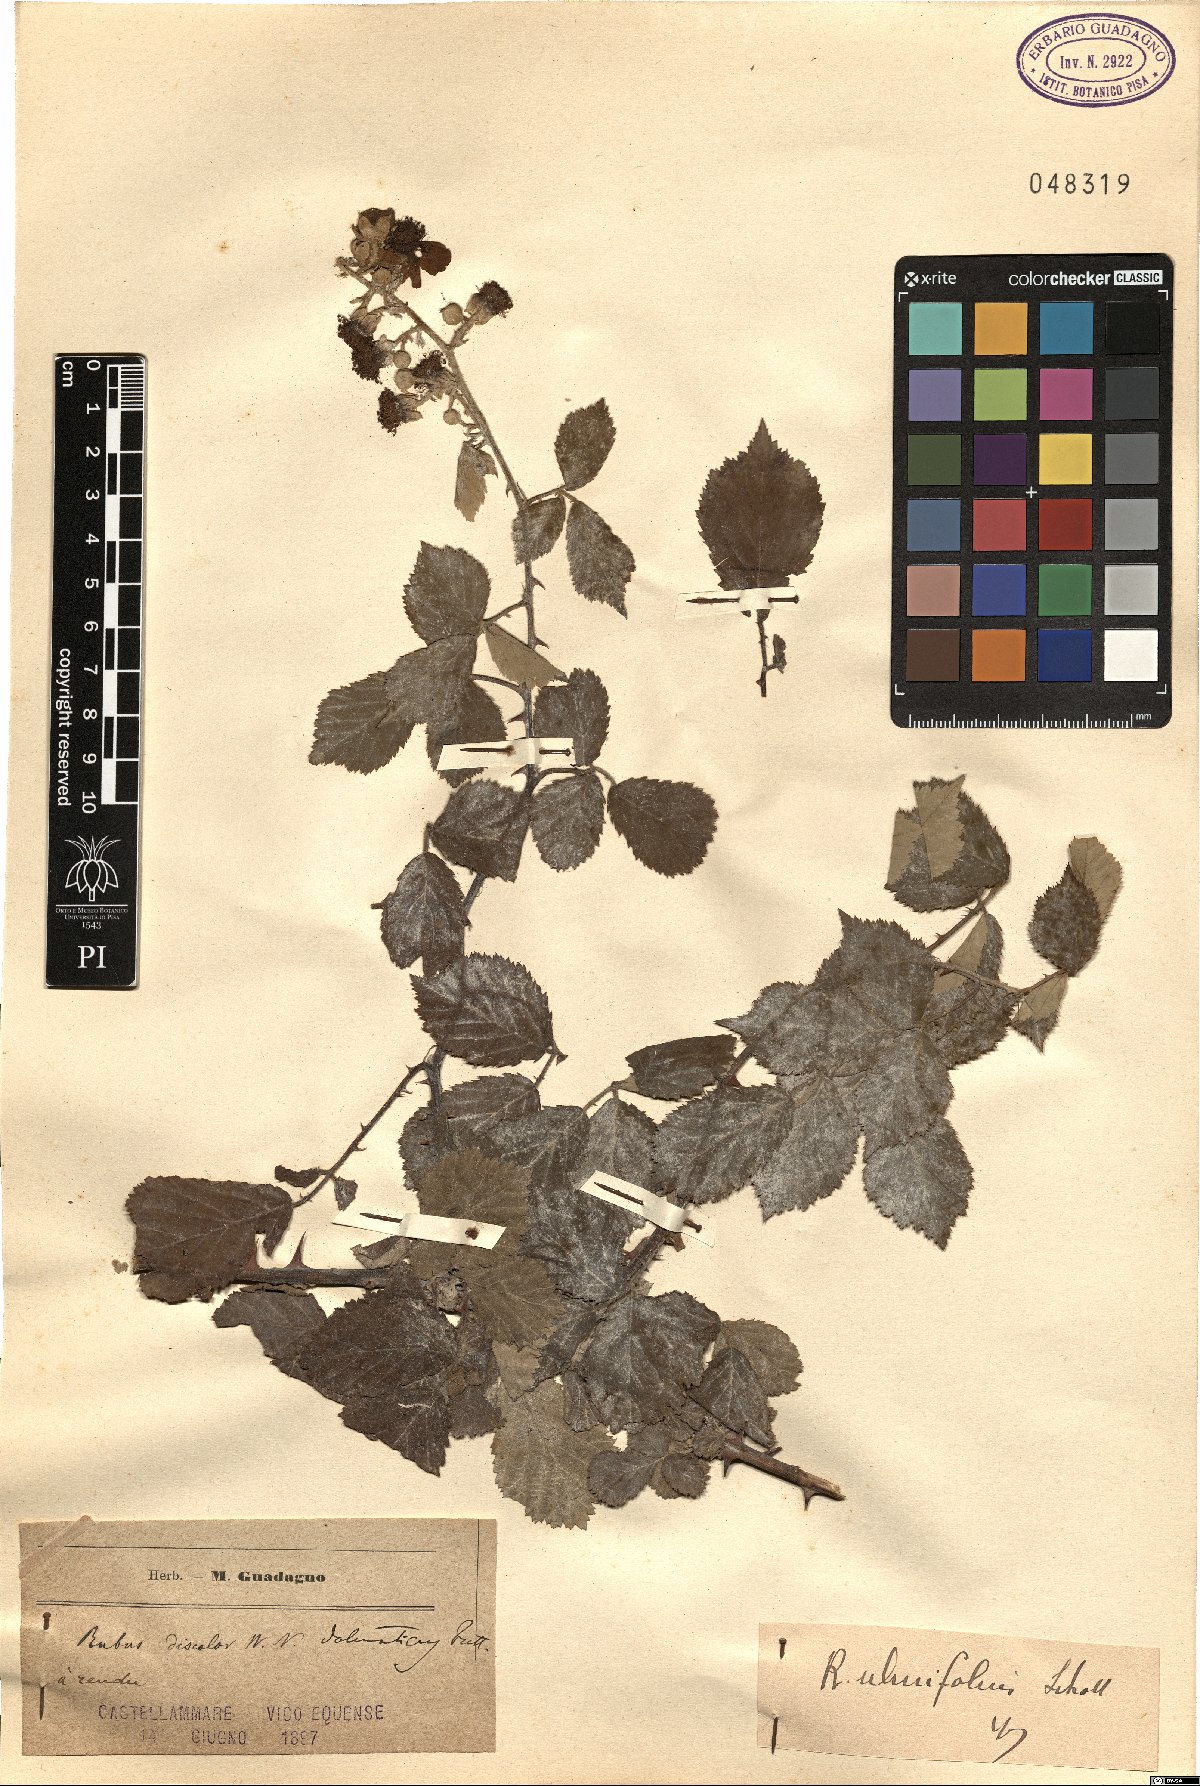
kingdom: Plantae
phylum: Tracheophyta
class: Magnoliopsida
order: Rosales
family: Rosaceae
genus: Rubus
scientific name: Rubus ulmifolius
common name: Elmleaf blackberry
